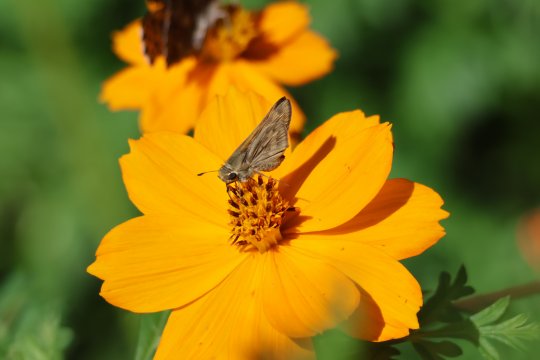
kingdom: Animalia
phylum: Arthropoda
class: Insecta
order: Lepidoptera
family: Hesperiidae
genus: Hesperia
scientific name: Hesperia comma
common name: Western Branded Skipper
